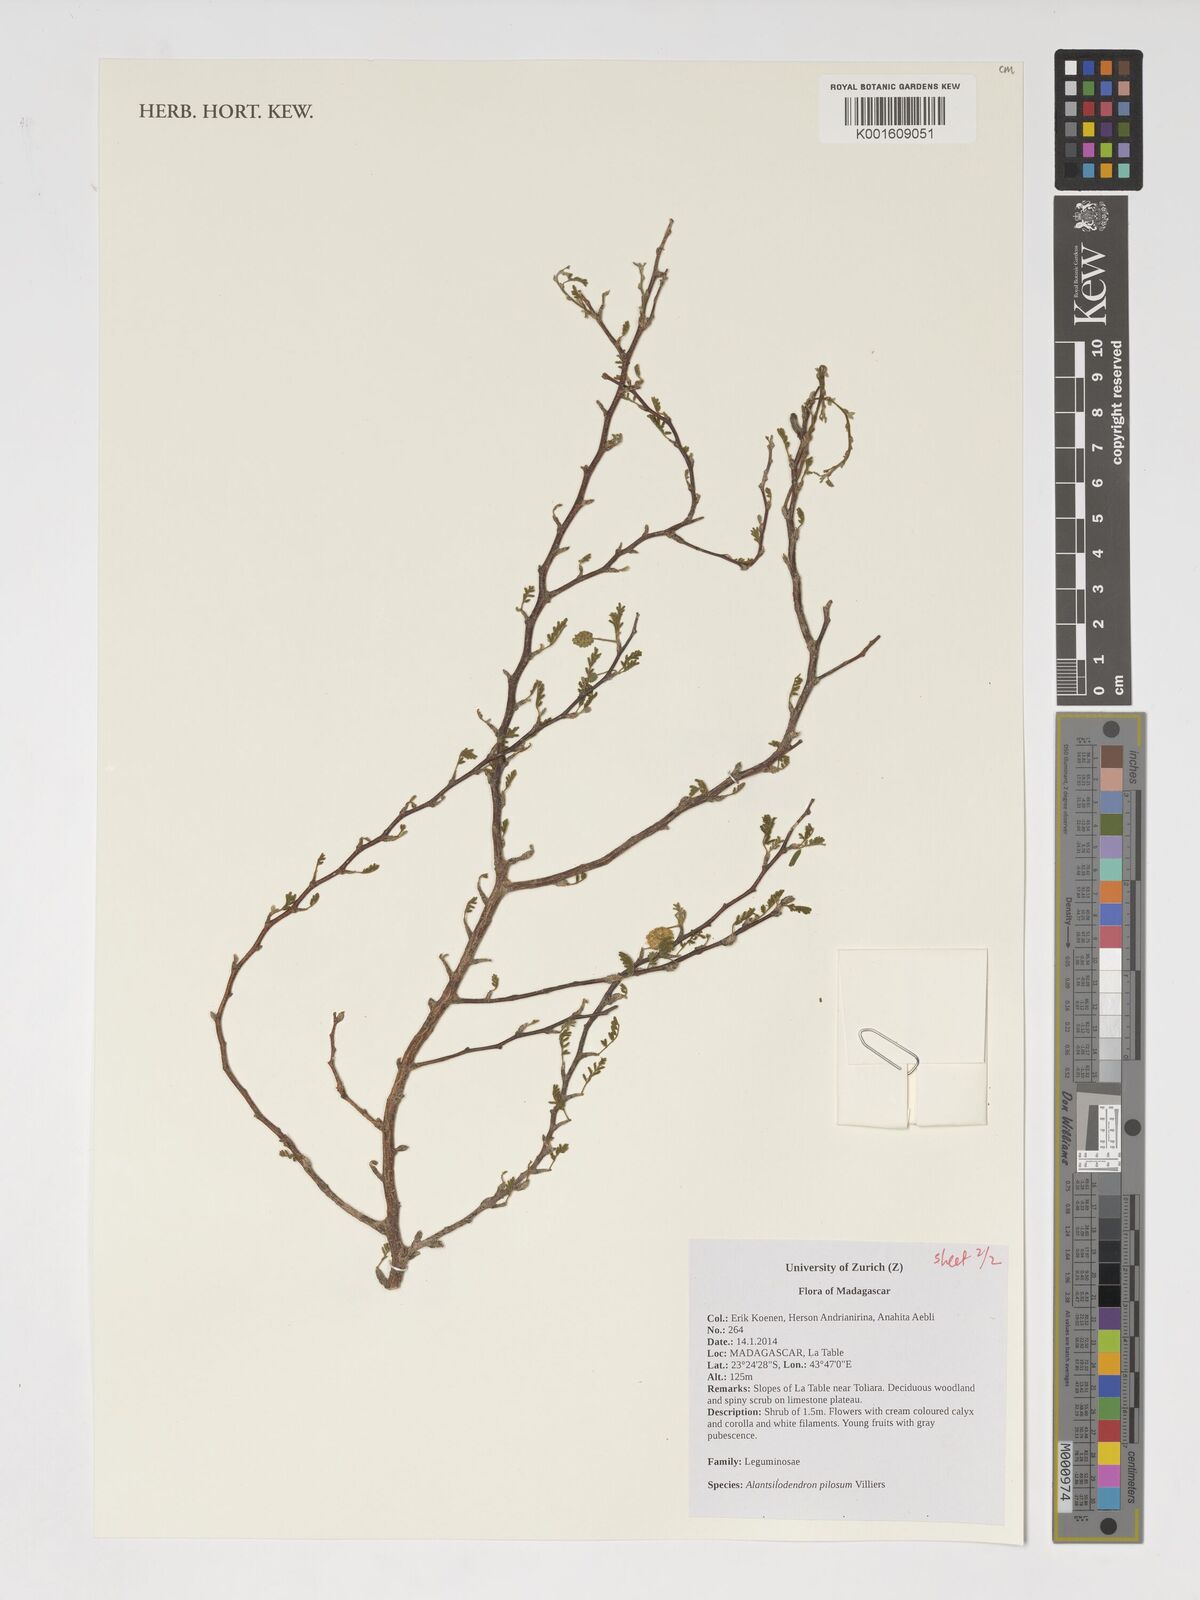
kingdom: Plantae
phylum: Tracheophyta
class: Magnoliopsida
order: Fabales
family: Fabaceae
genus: Alantsilodendron
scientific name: Alantsilodendron pilosum
